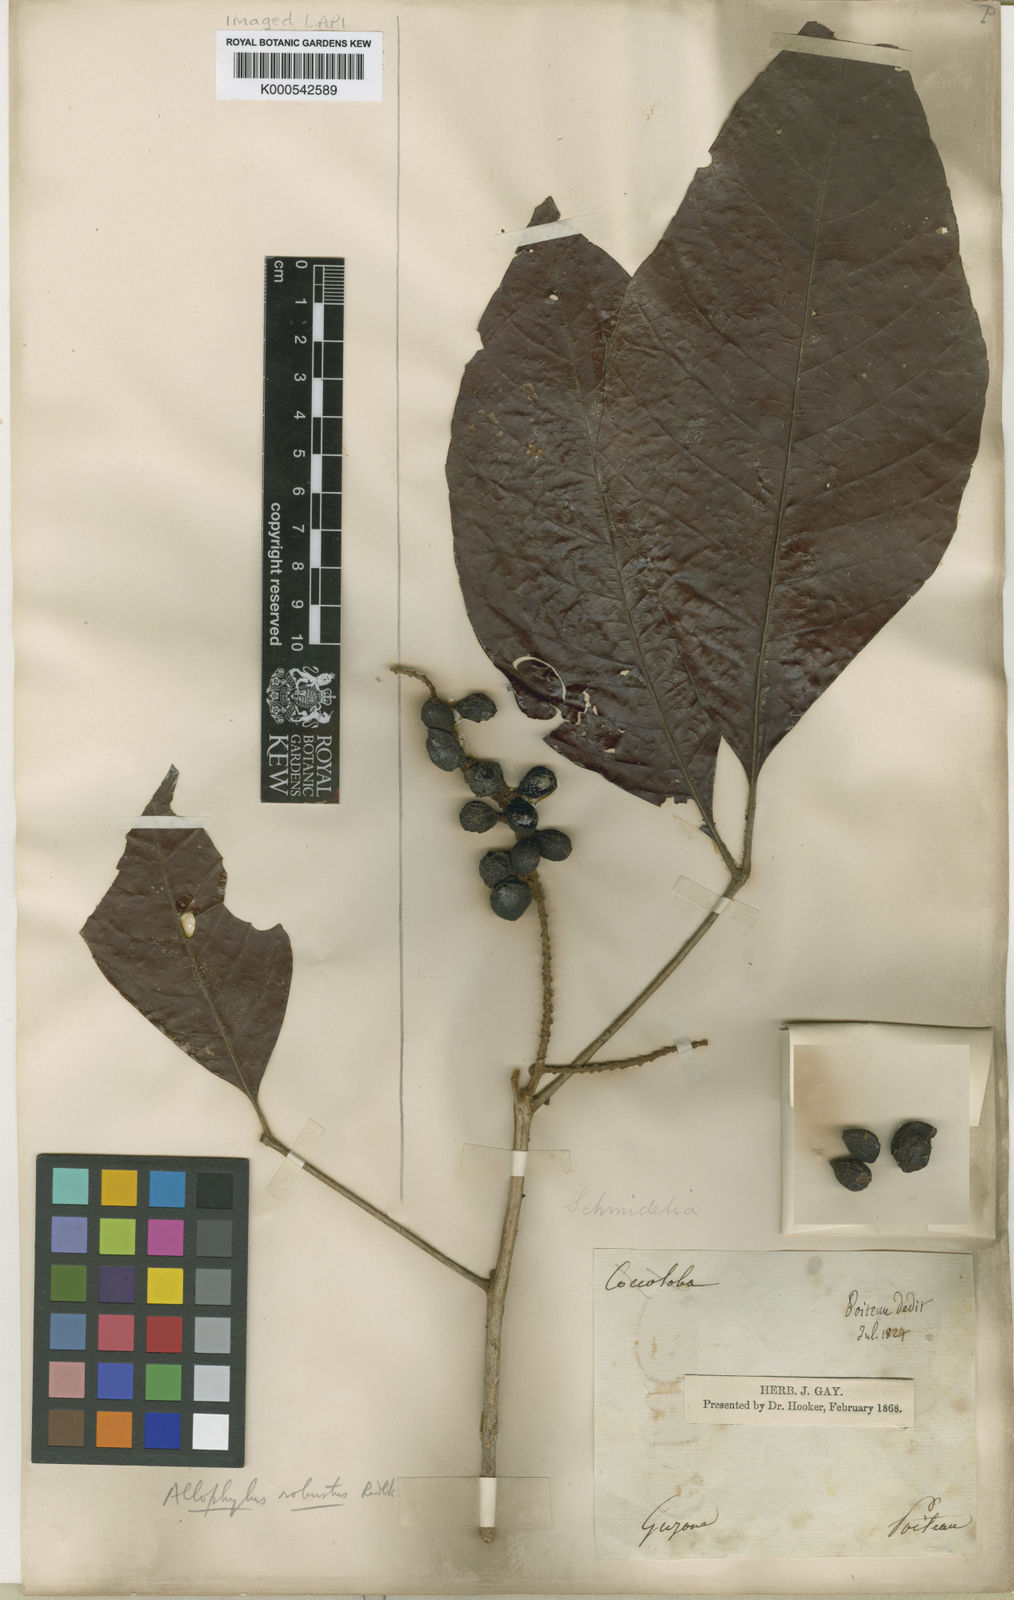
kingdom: Plantae
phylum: Tracheophyta
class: Magnoliopsida
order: Sapindales
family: Sapindaceae
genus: Allophylus
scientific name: Allophylus
